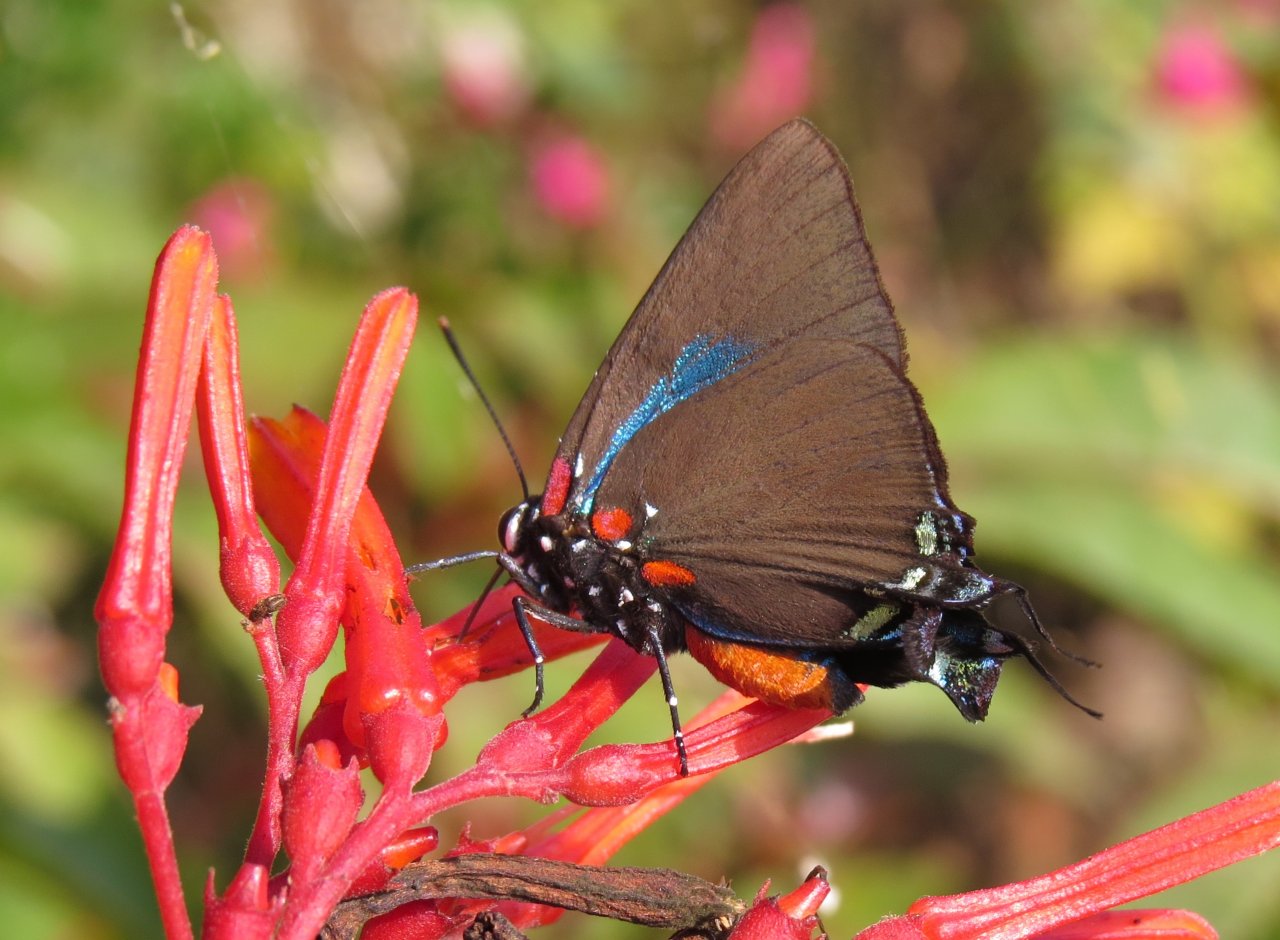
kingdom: Animalia
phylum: Arthropoda
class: Insecta
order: Lepidoptera
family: Lycaenidae
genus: Atlides
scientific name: Atlides halesus
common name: Great Purple Hairstreak
